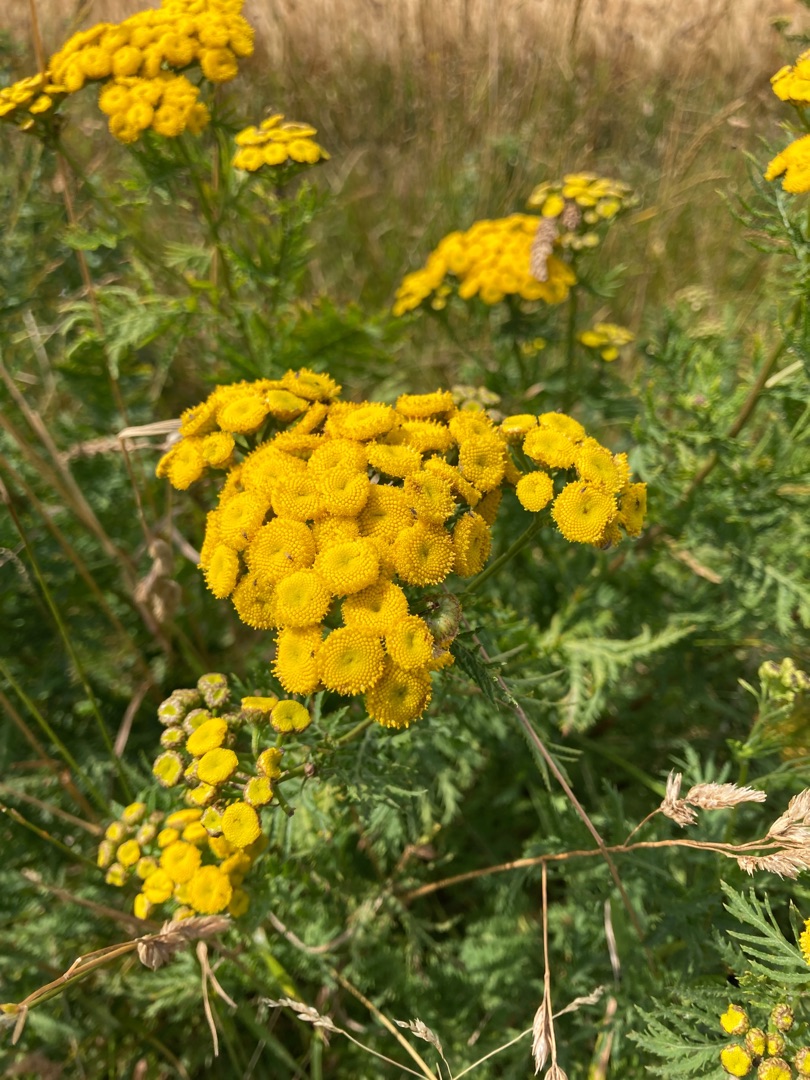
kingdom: Plantae
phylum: Tracheophyta
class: Magnoliopsida
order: Asterales
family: Asteraceae
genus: Tanacetum
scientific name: Tanacetum vulgare
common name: Rejnfan
